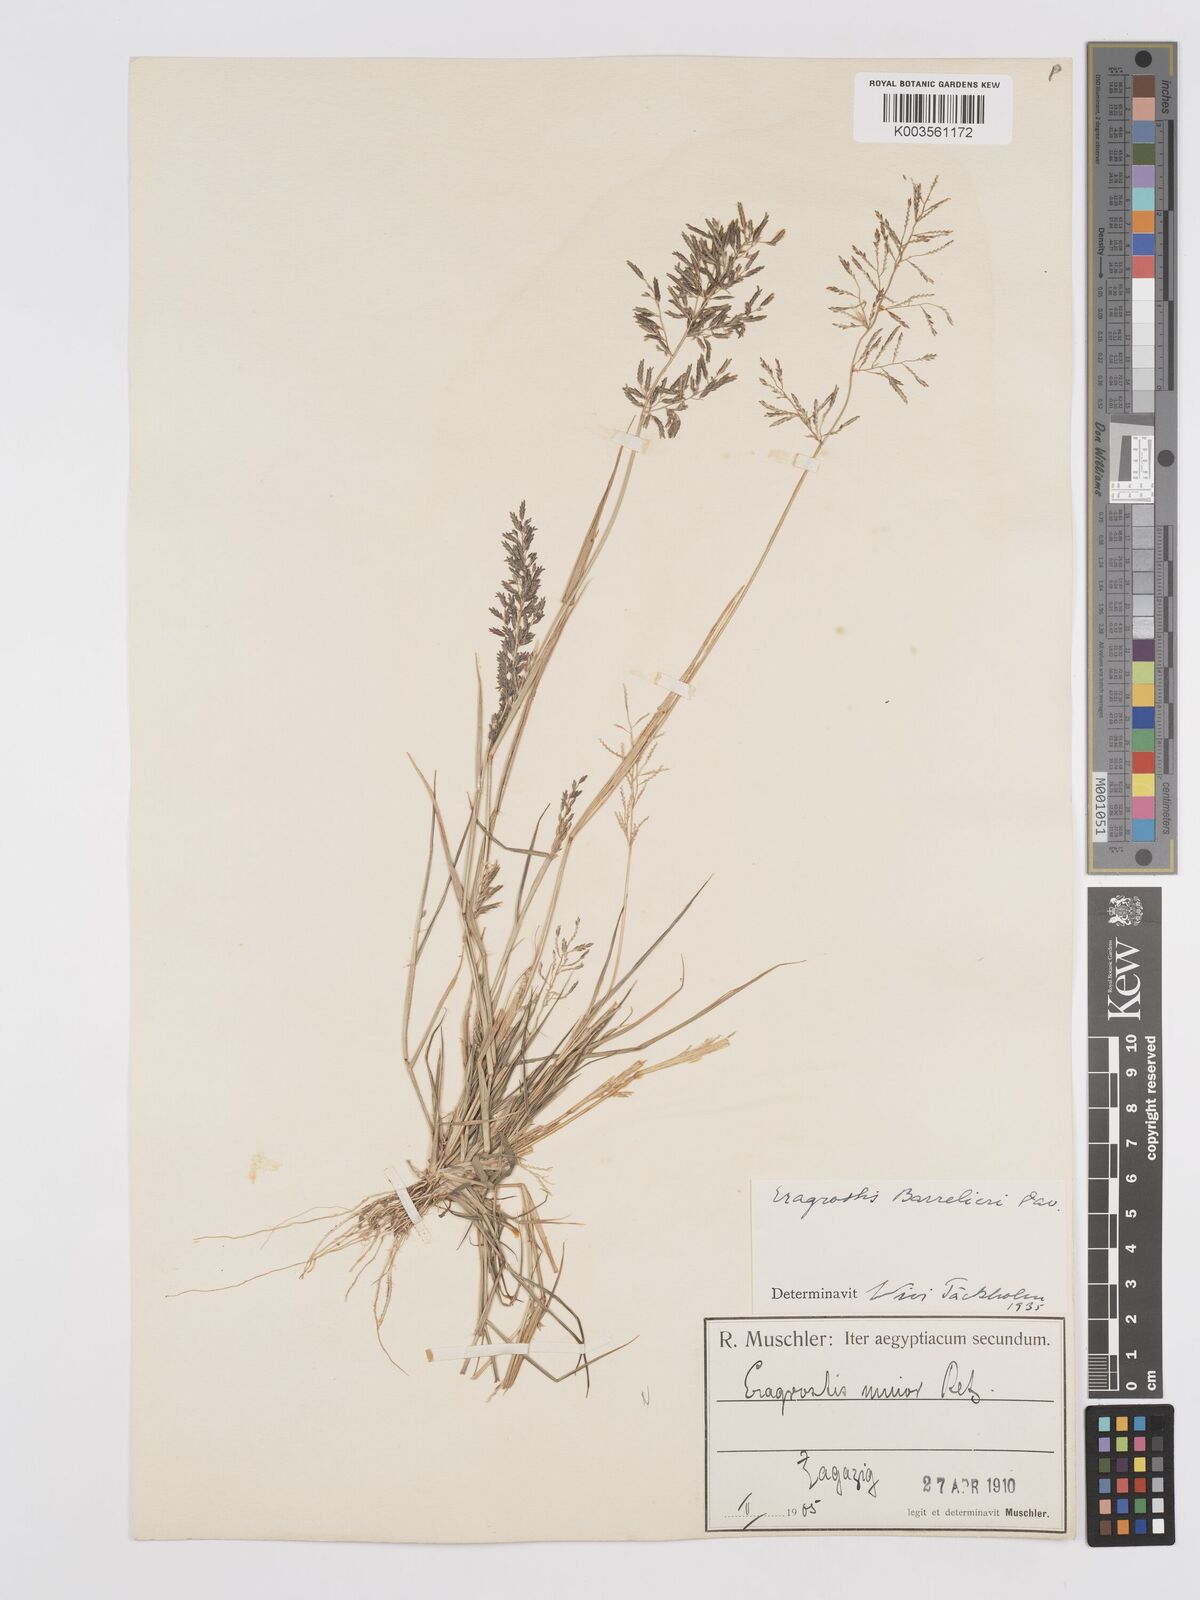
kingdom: Plantae
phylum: Tracheophyta
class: Liliopsida
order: Poales
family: Poaceae
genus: Eragrostis
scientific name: Eragrostis barrelieri
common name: Mediterranean lovegrass
